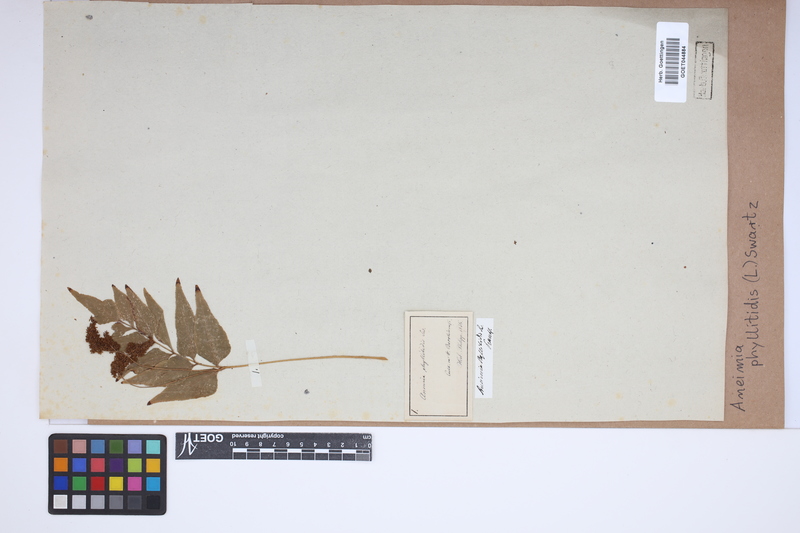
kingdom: Plantae
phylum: Tracheophyta
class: Polypodiopsida
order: Schizaeales
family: Anemiaceae
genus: Anemia
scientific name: Anemia phyllitidis
